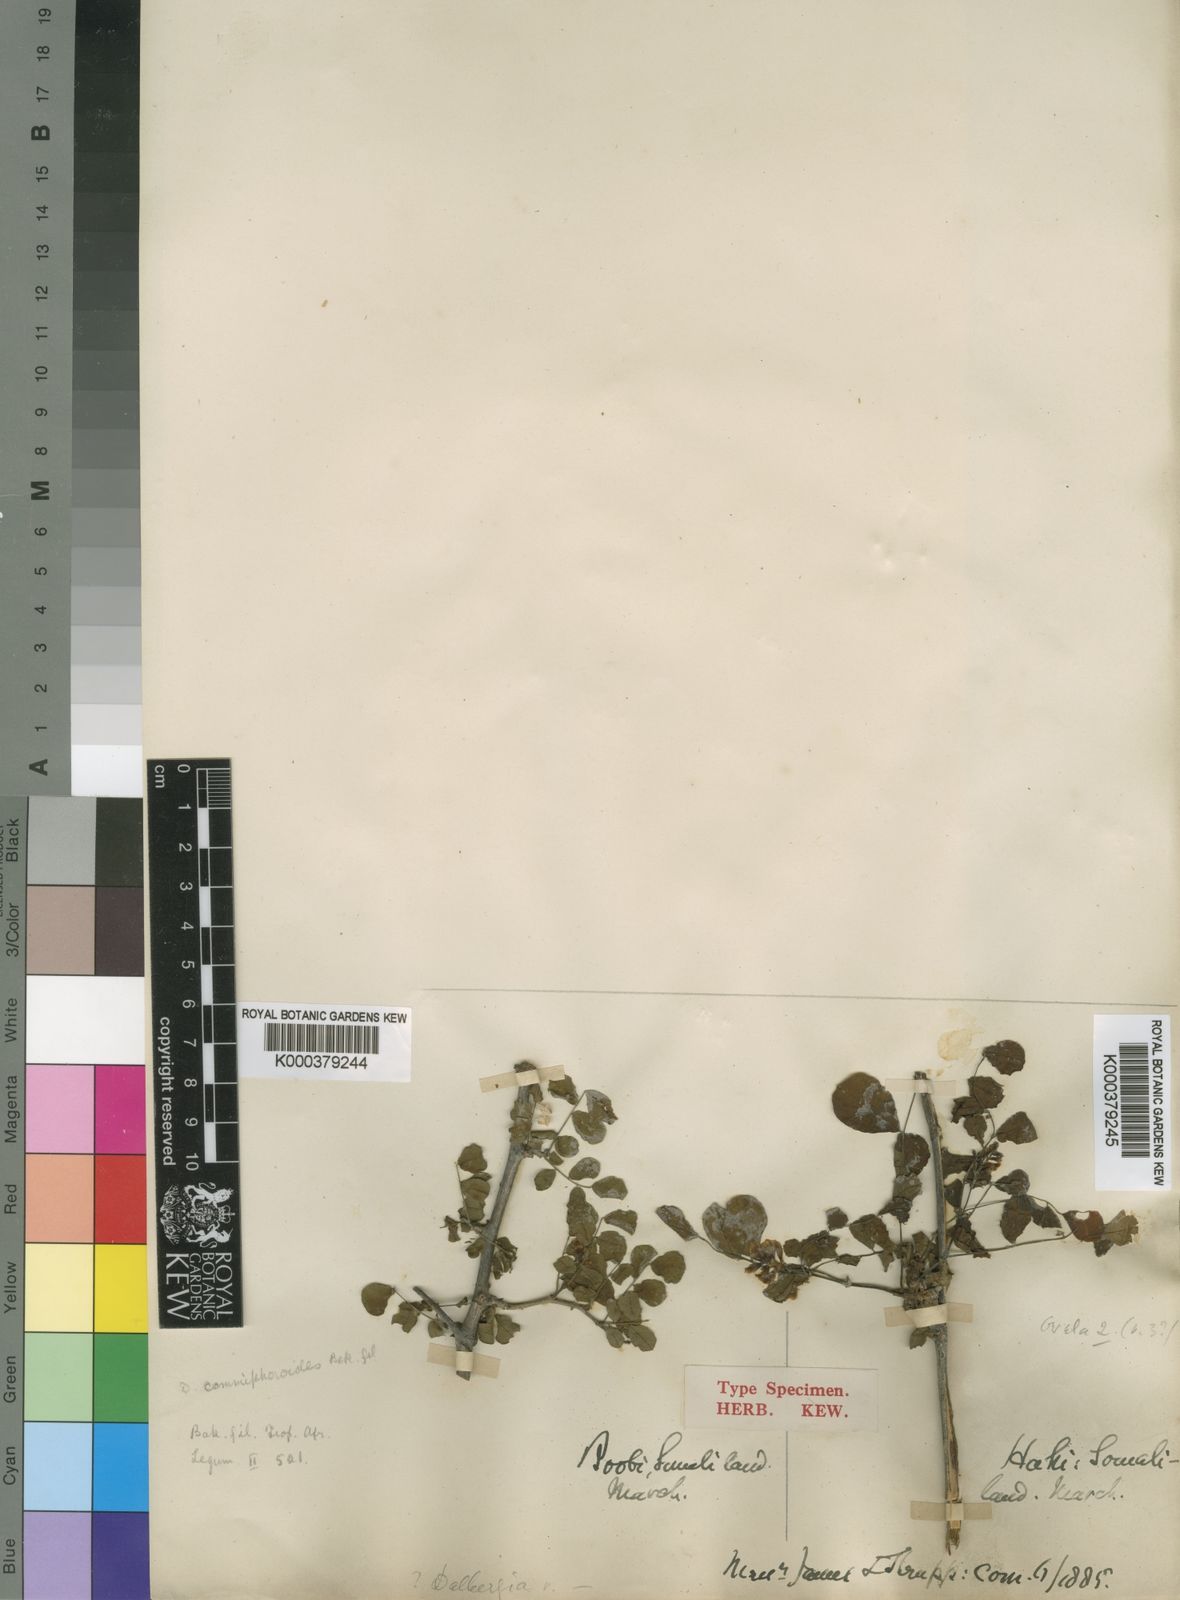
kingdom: Plantae
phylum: Tracheophyta
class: Magnoliopsida
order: Fabales
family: Fabaceae
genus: Dalbergia
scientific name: Dalbergia commiphoroides
